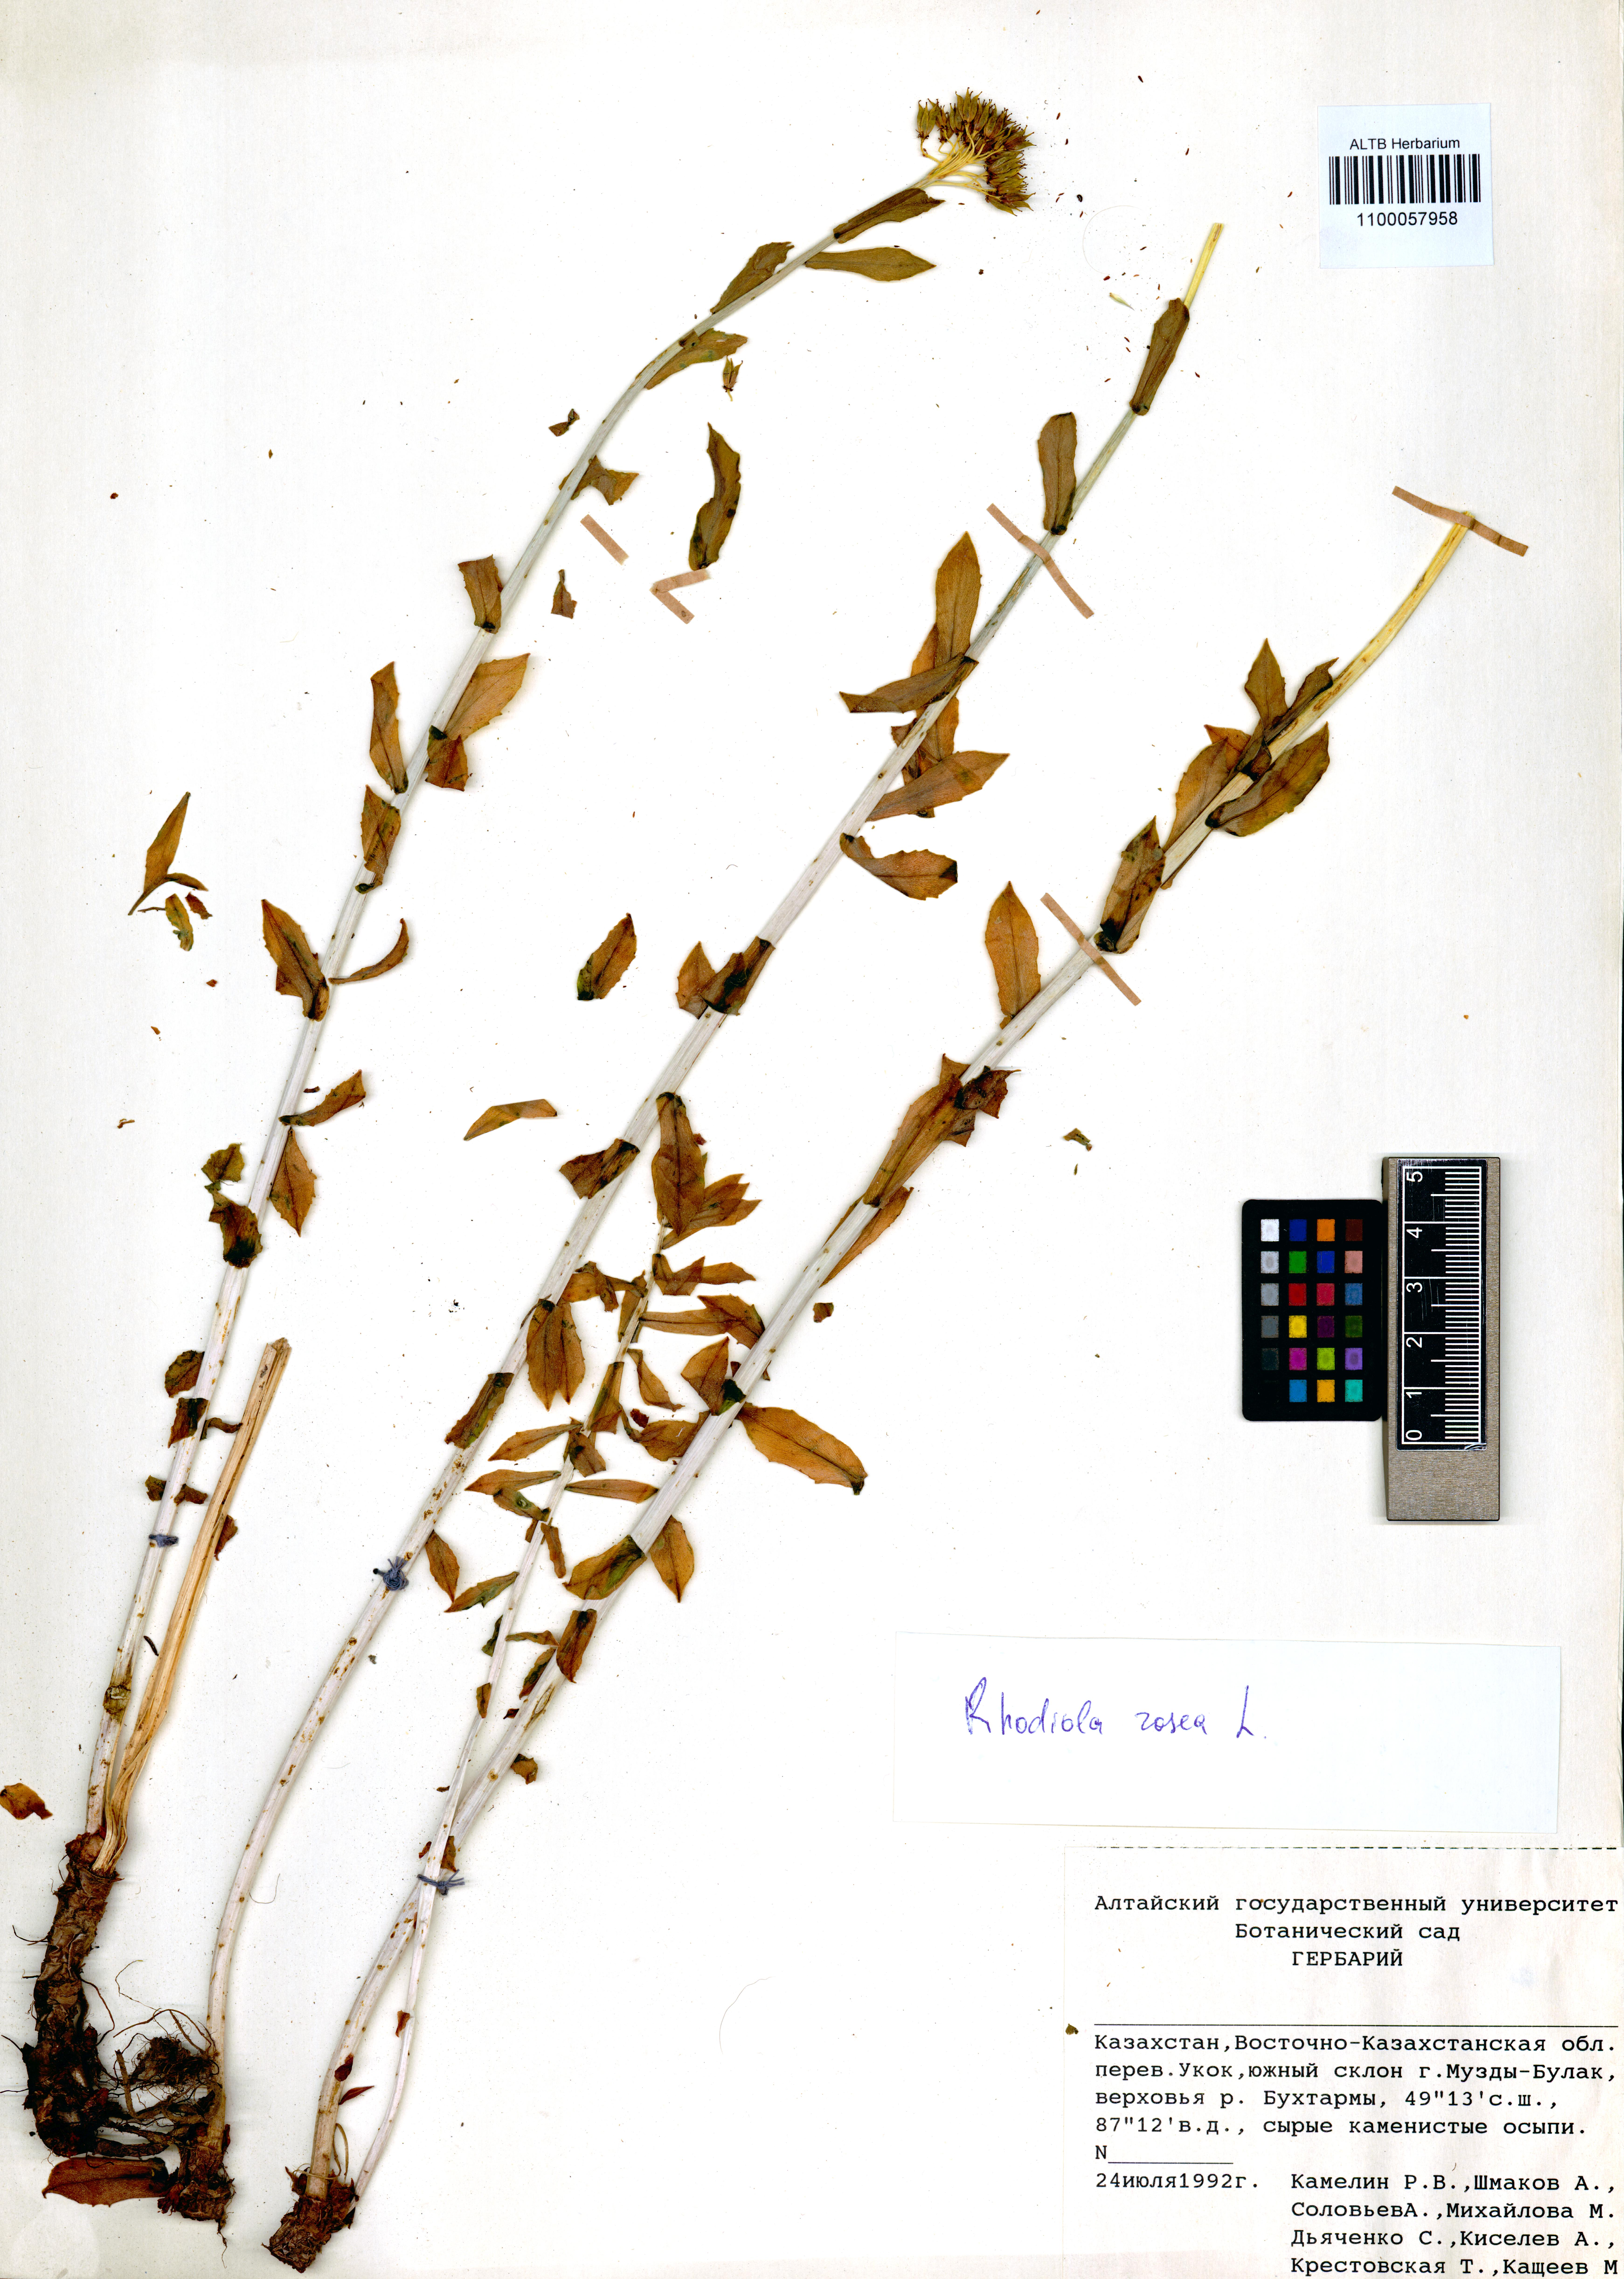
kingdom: Plantae
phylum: Tracheophyta
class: Magnoliopsida
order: Saxifragales
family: Crassulaceae
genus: Rhodiola
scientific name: Rhodiola rosea
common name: Roseroot
